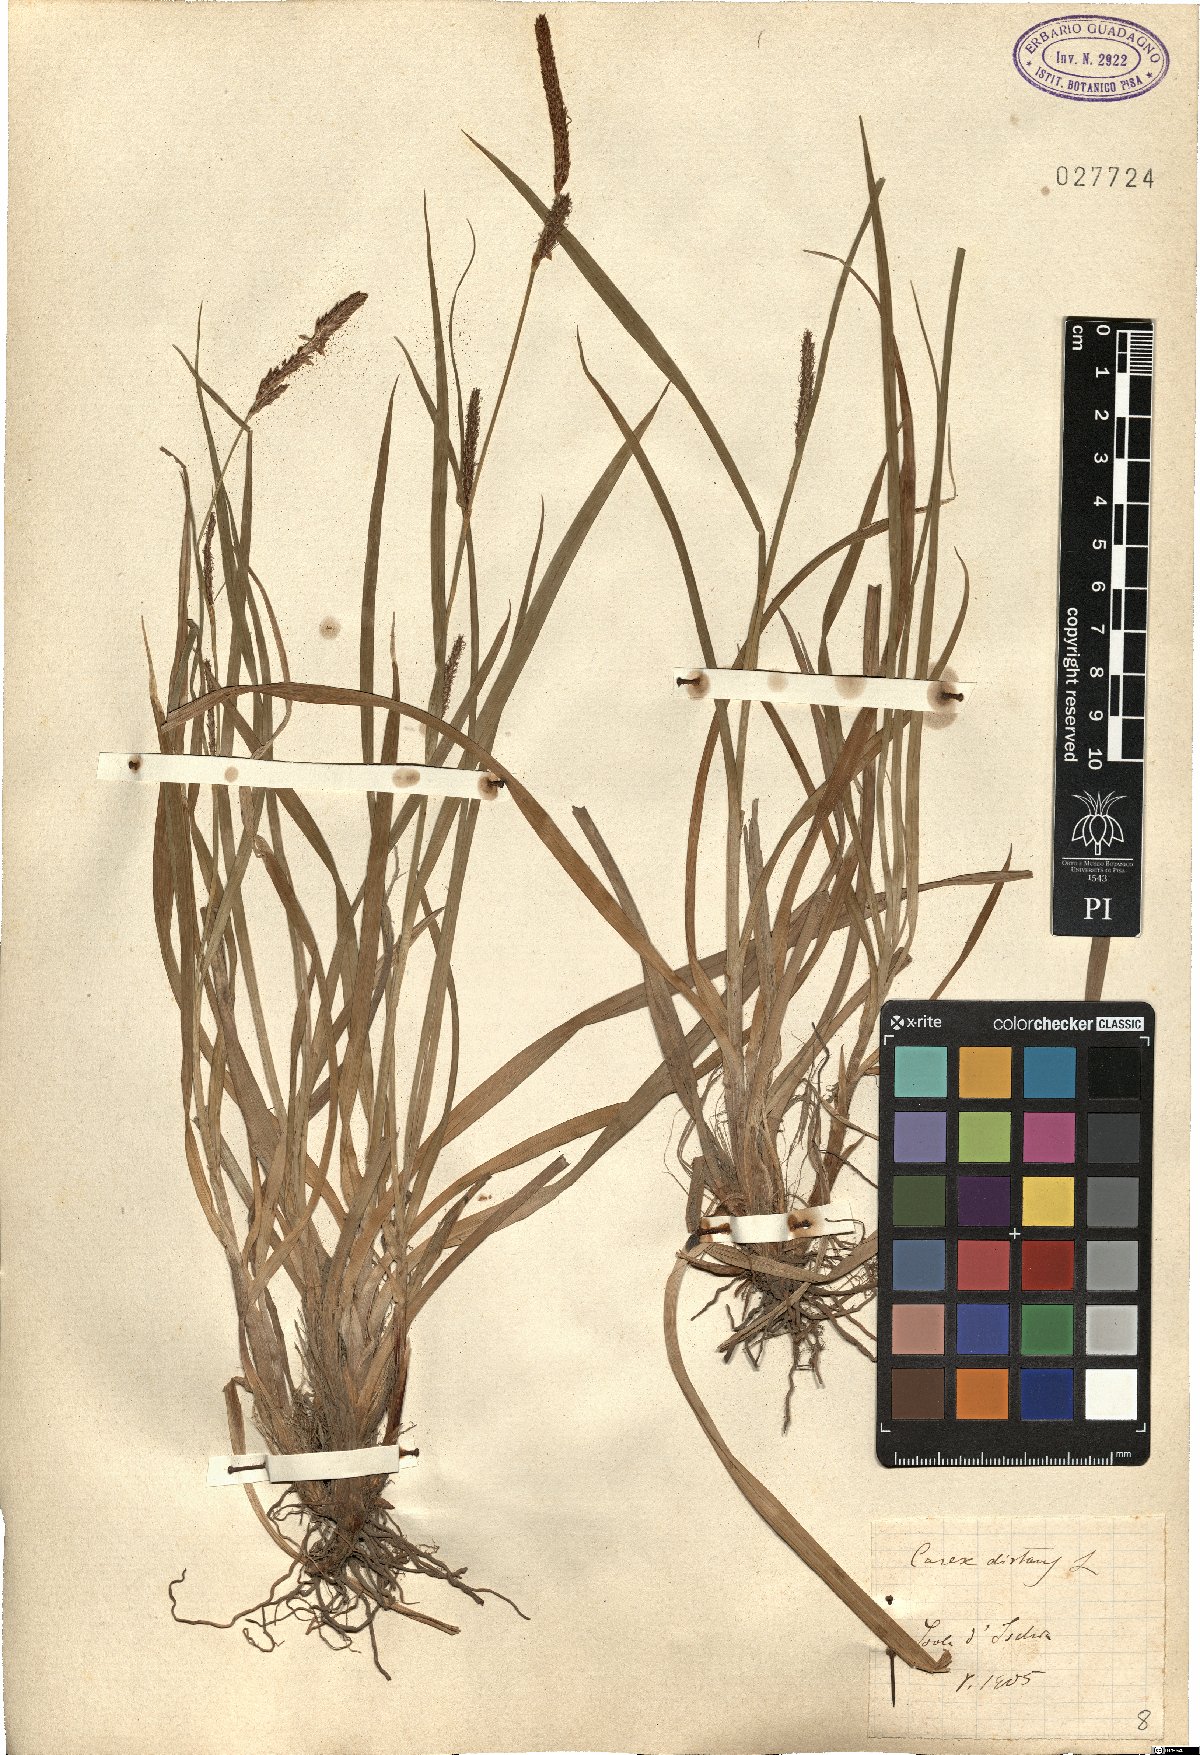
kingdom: Plantae
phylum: Tracheophyta
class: Liliopsida
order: Poales
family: Cyperaceae
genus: Carex
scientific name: Carex distans
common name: Distant sedge
